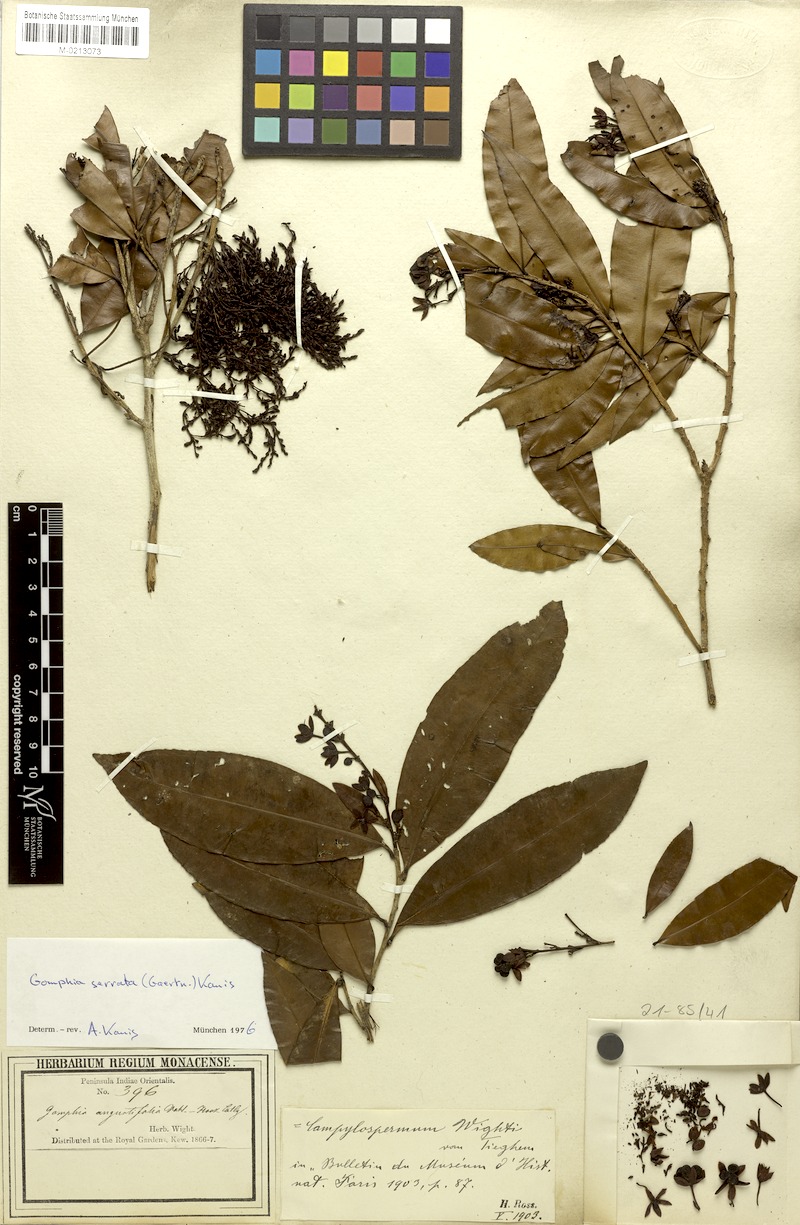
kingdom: Plantae
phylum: Tracheophyta
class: Magnoliopsida
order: Malpighiales
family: Ochnaceae
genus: Gomphia
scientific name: Gomphia serrata
